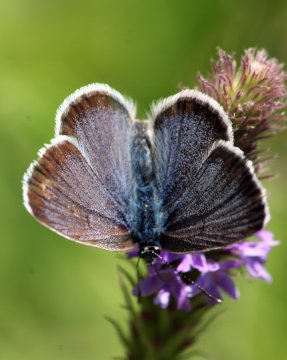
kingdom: Animalia
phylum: Arthropoda
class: Insecta
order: Lepidoptera
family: Lycaenidae
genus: Icaricia
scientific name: Icaricia icarioides
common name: Boisduval's Blue
